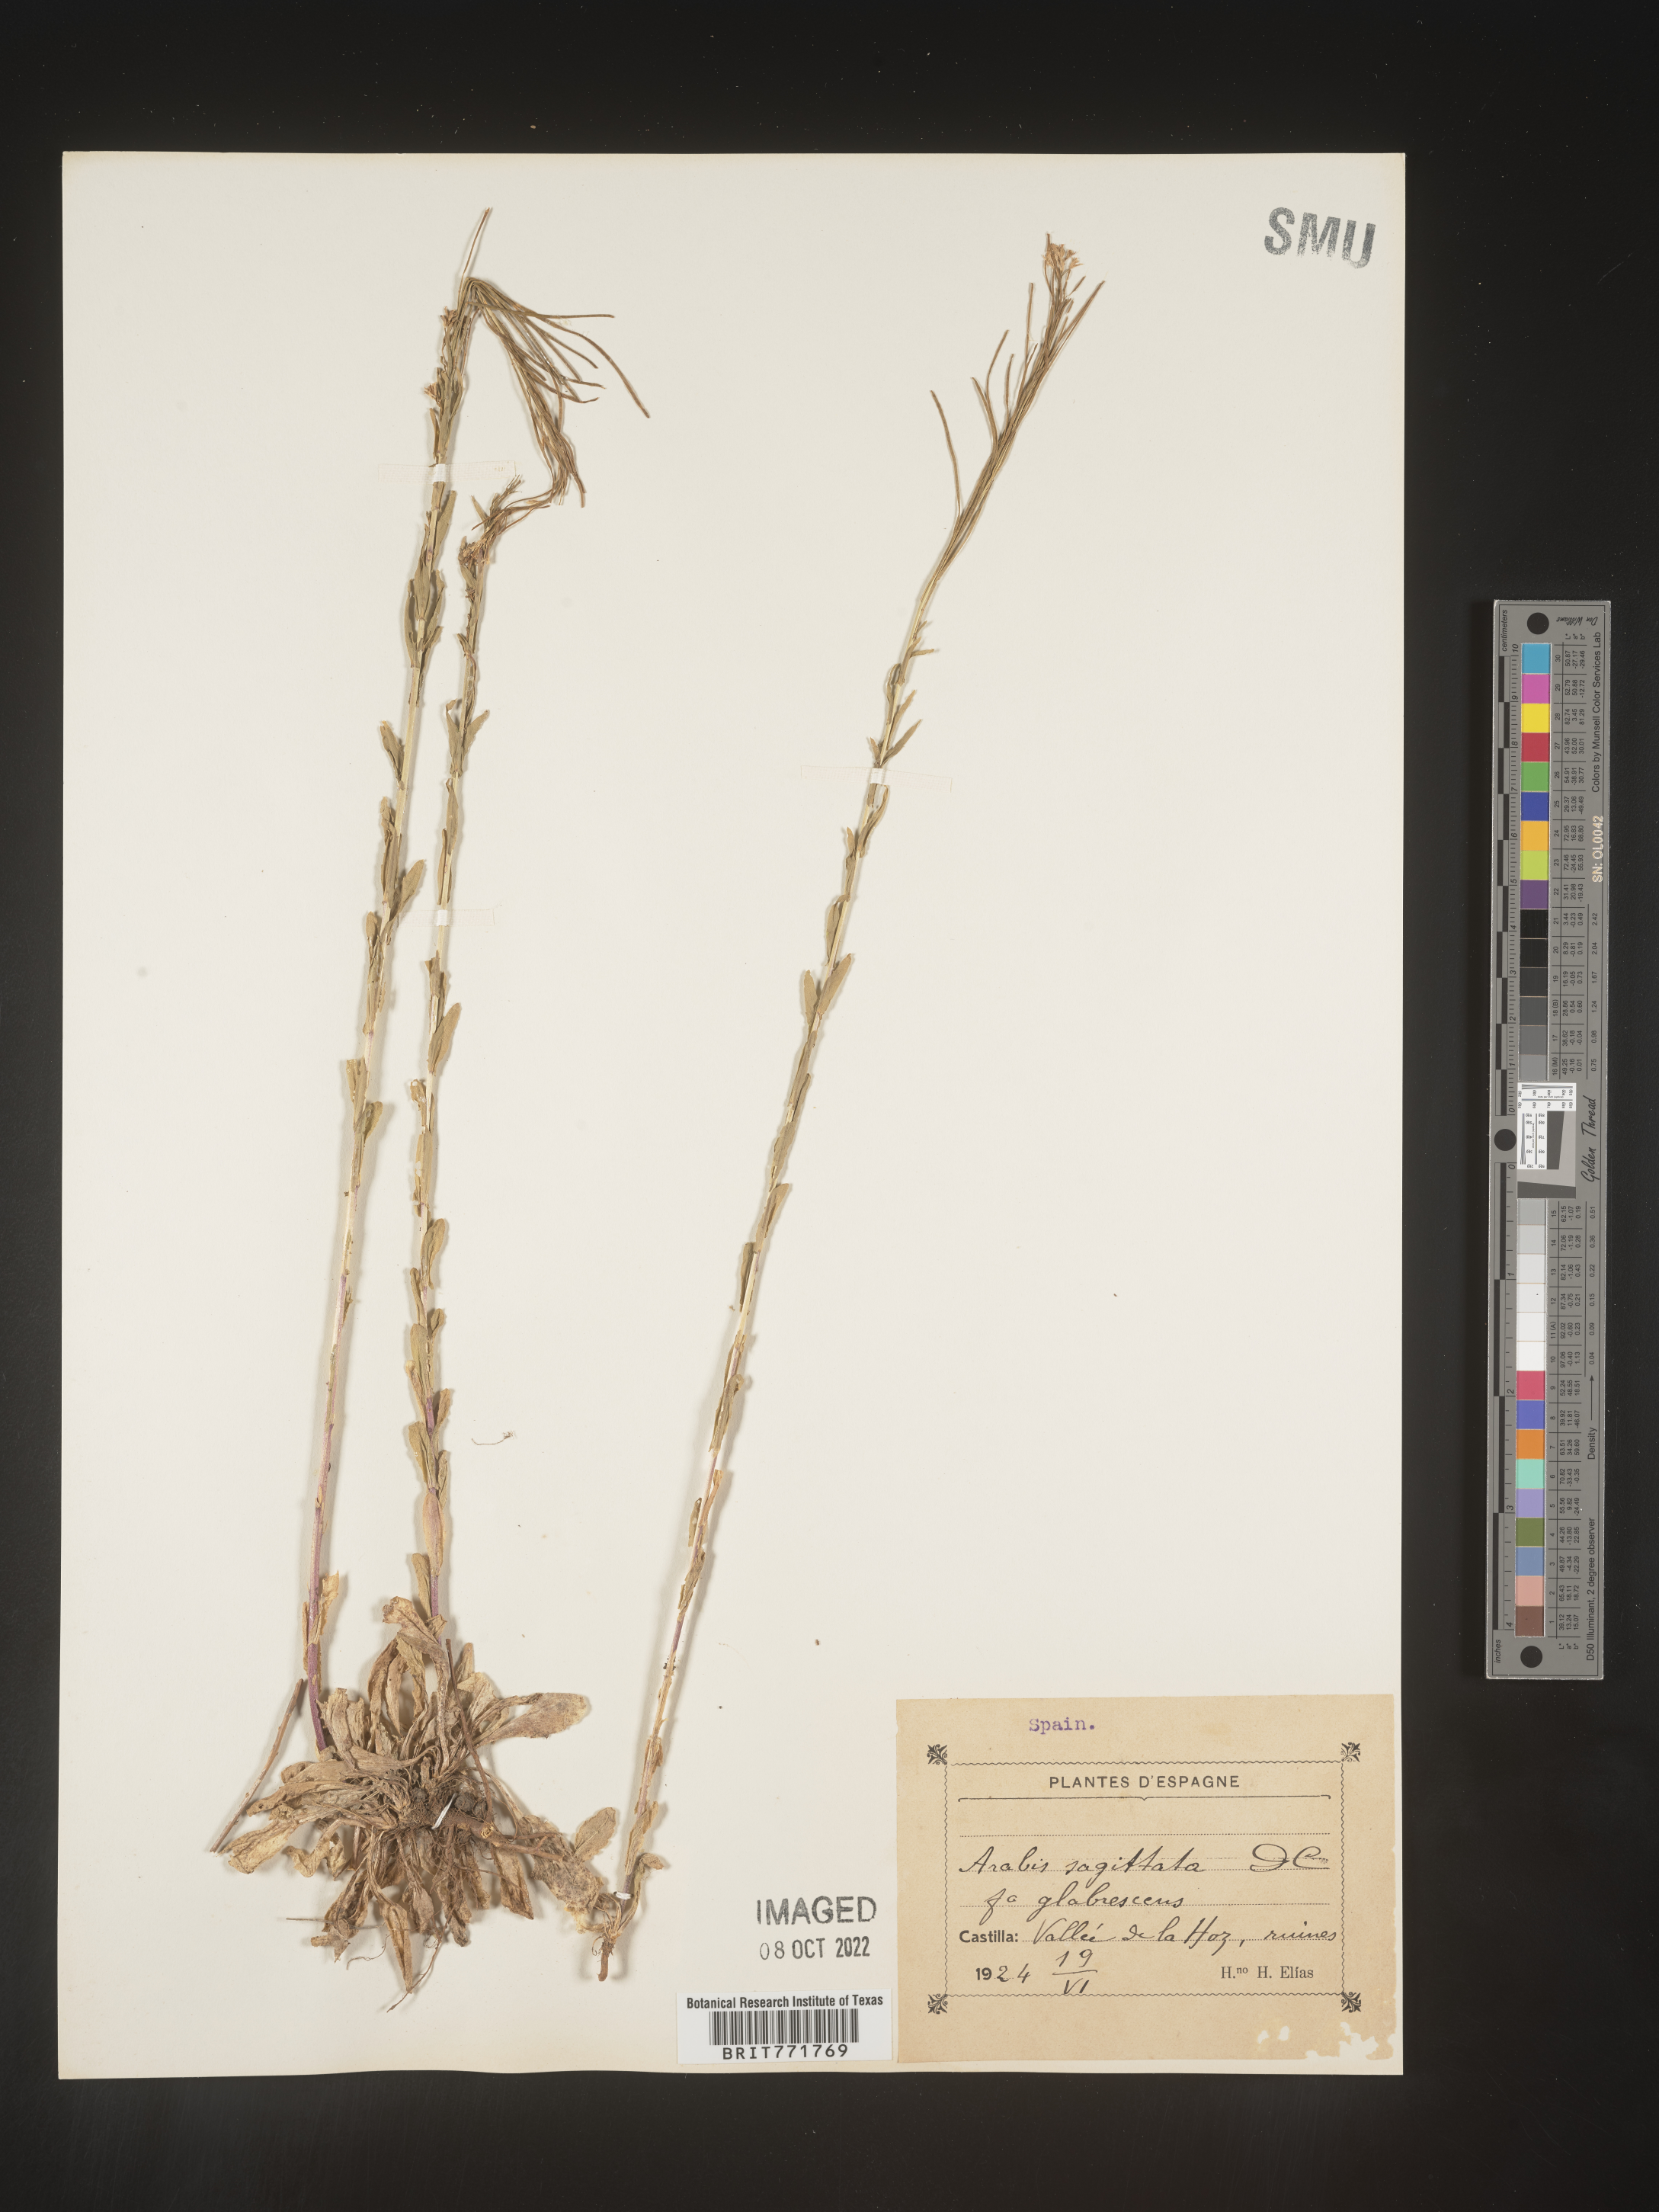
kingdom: Plantae
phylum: Tracheophyta
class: Magnoliopsida
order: Brassicales
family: Brassicaceae
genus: Arabis
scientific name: Arabis
